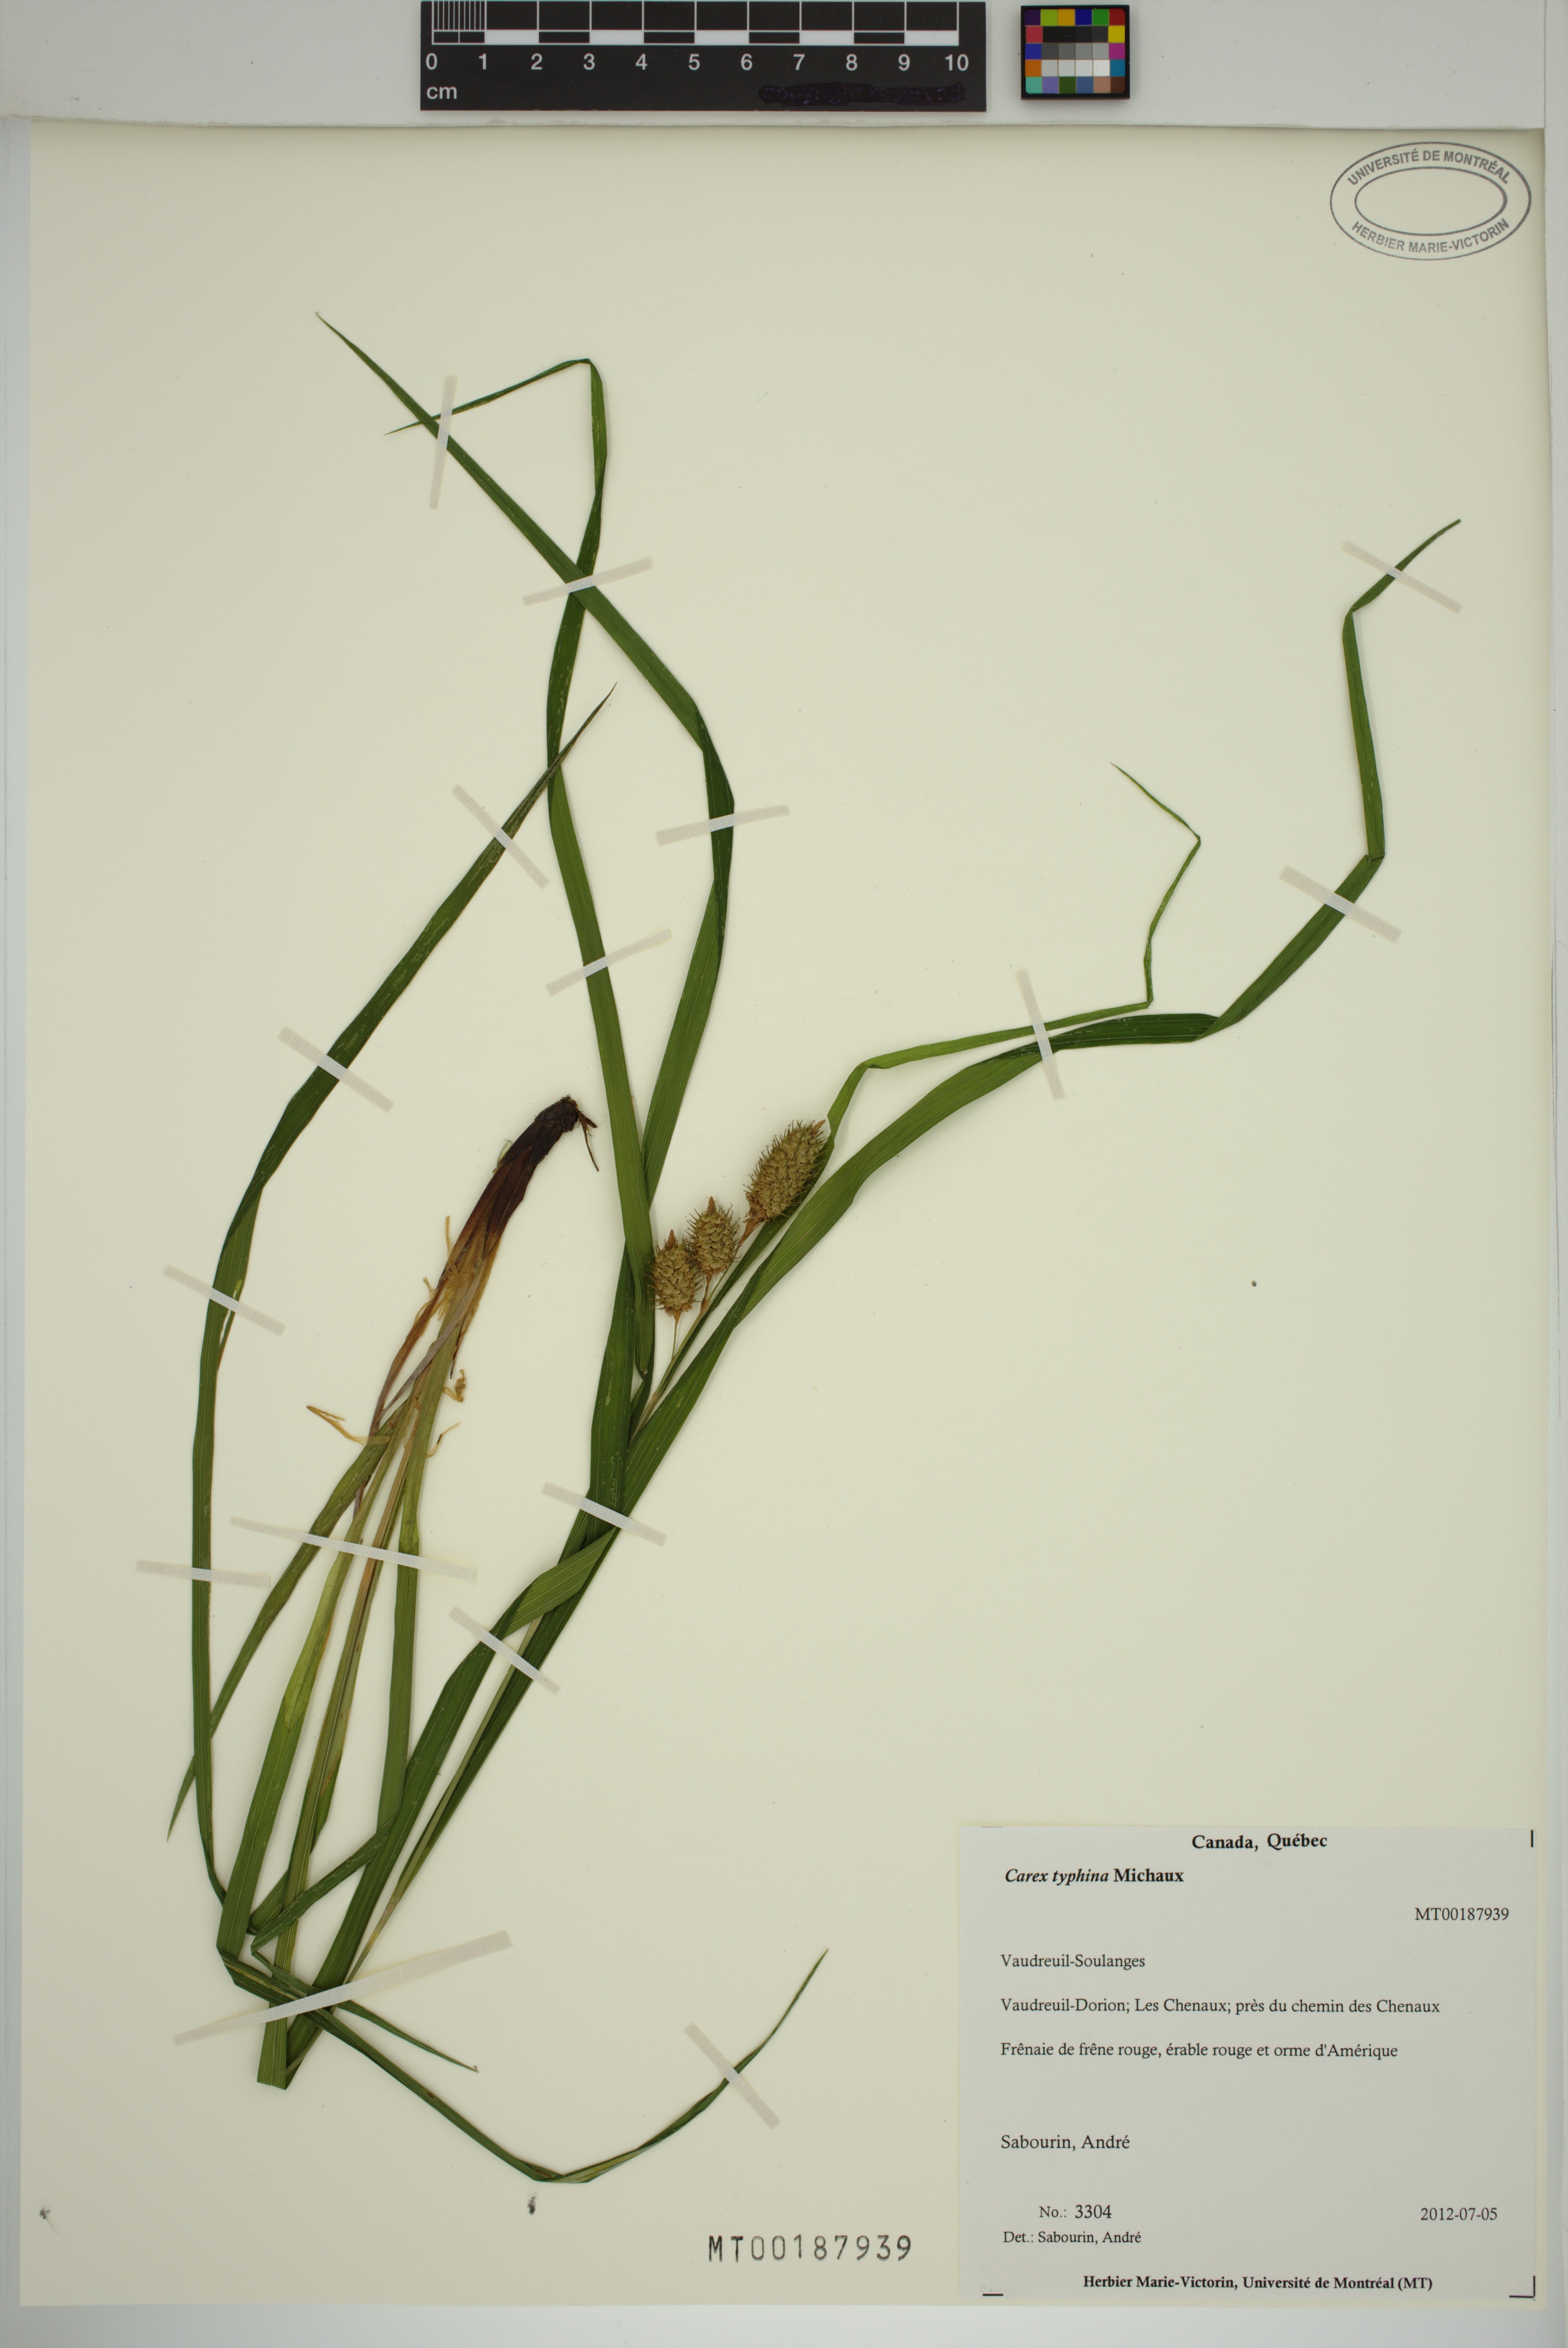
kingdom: Plantae
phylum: Tracheophyta
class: Liliopsida
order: Poales
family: Cyperaceae
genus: Carex
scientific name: Carex typhina
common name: Cattail sedge
